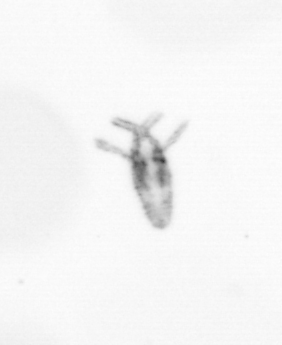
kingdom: Animalia
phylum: Arthropoda
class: Copepoda
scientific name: Copepoda
